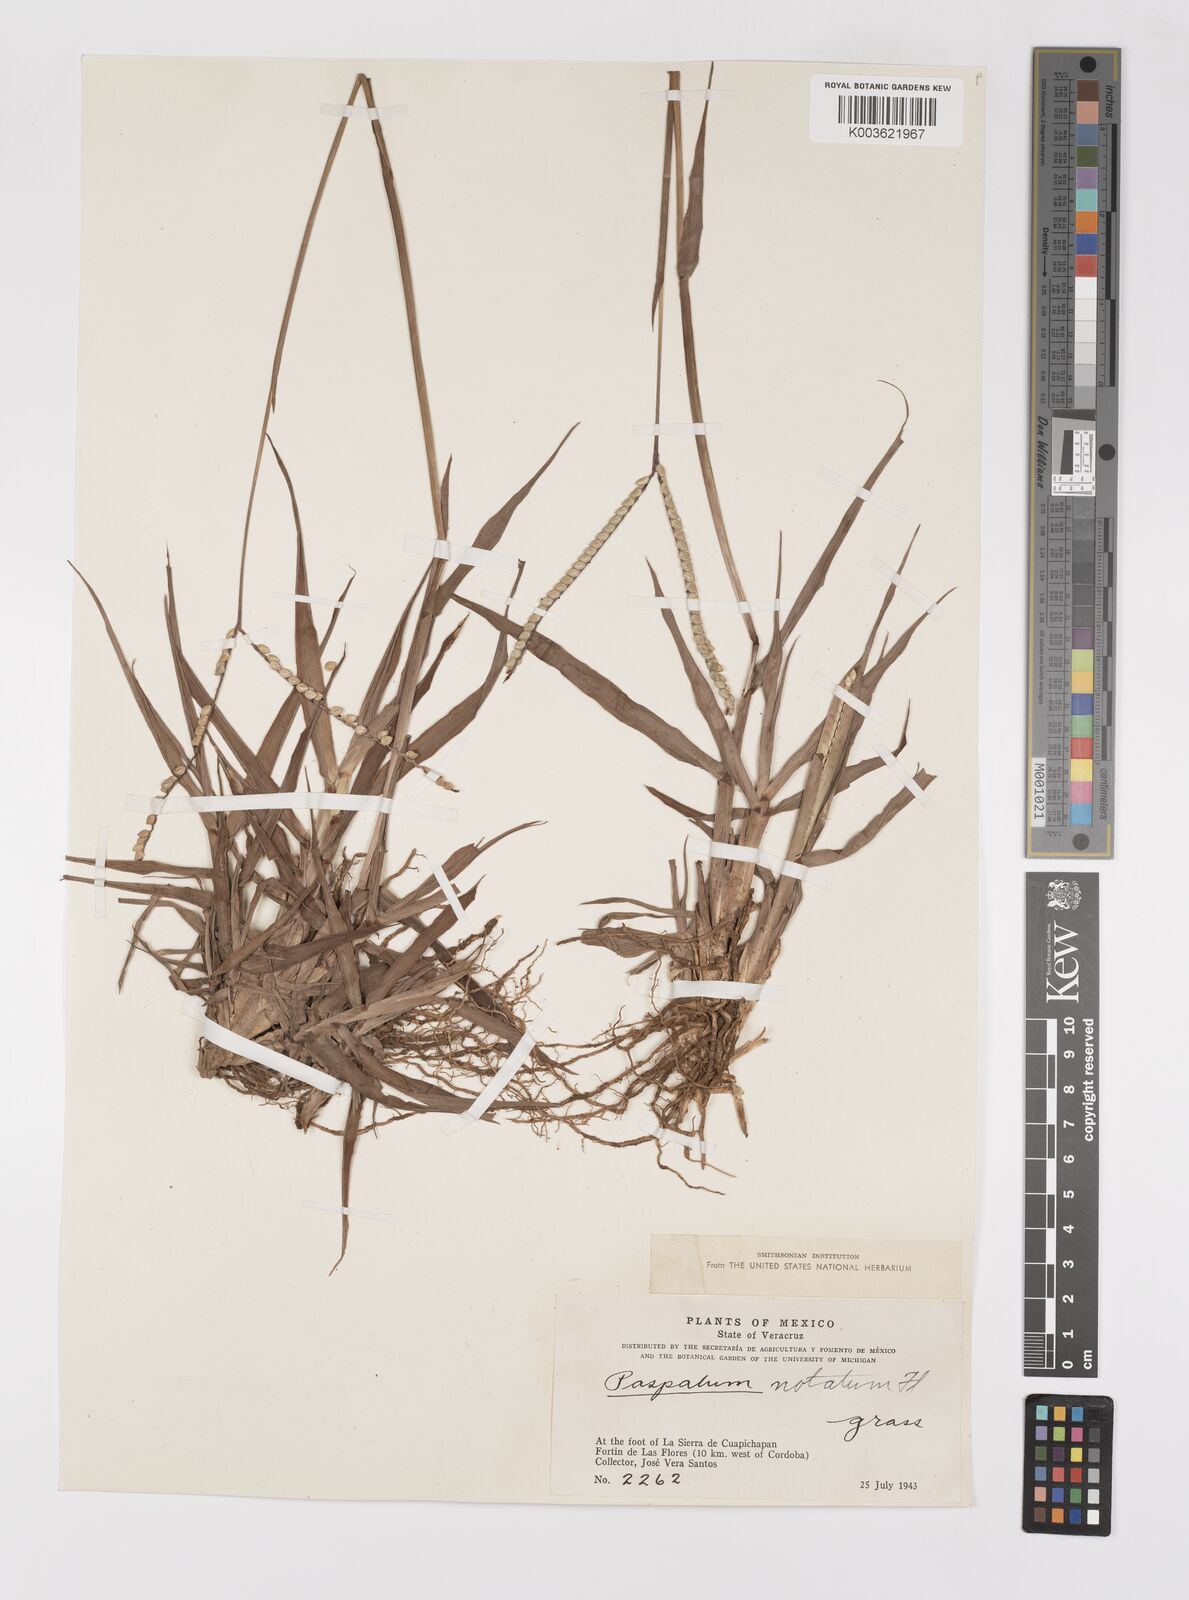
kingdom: Plantae
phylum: Tracheophyta
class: Liliopsida
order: Poales
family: Poaceae
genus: Paspalum
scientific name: Paspalum notatum
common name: Bahiagrass
